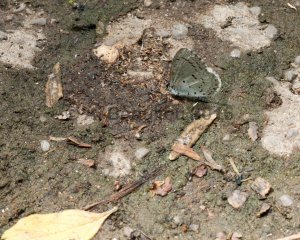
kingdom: Animalia
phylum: Arthropoda
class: Insecta
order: Lepidoptera
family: Lycaenidae
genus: Celastrina
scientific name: Celastrina lucia
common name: Northern Spring Azure
